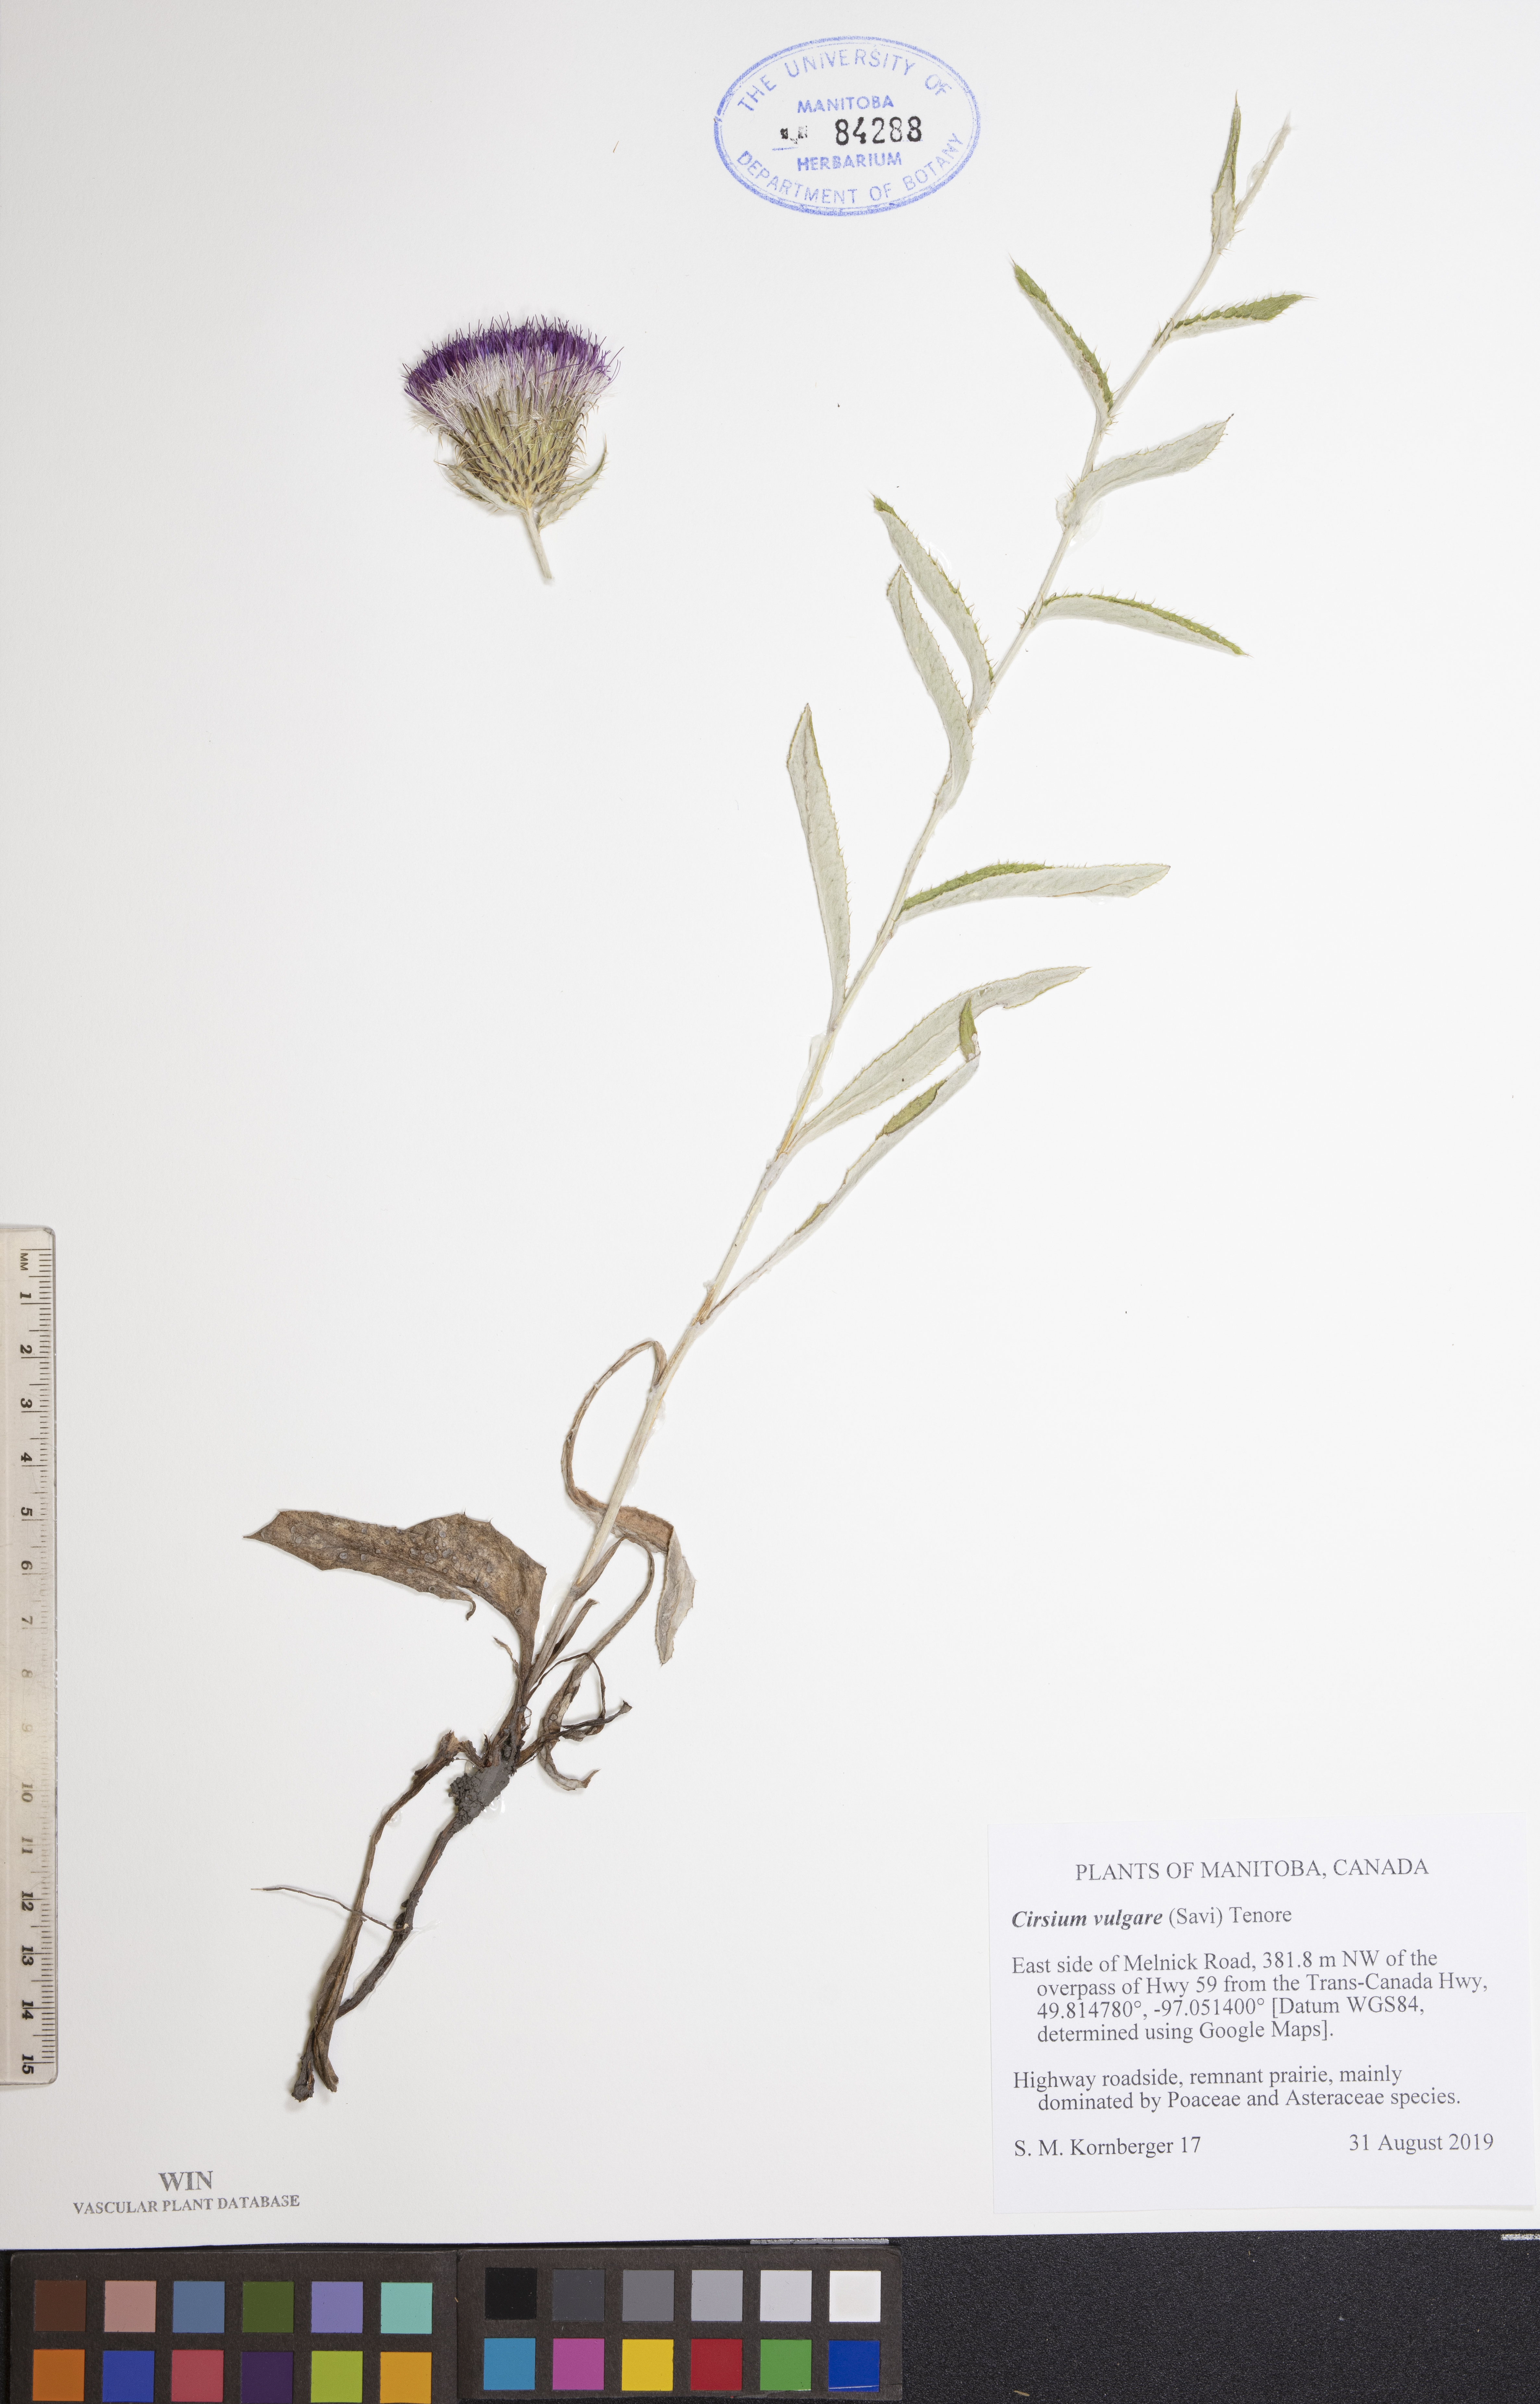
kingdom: Plantae
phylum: Tracheophyta
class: Magnoliopsida
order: Asterales
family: Asteraceae
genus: Cirsium
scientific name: Cirsium vulgare
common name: Bull thistle
